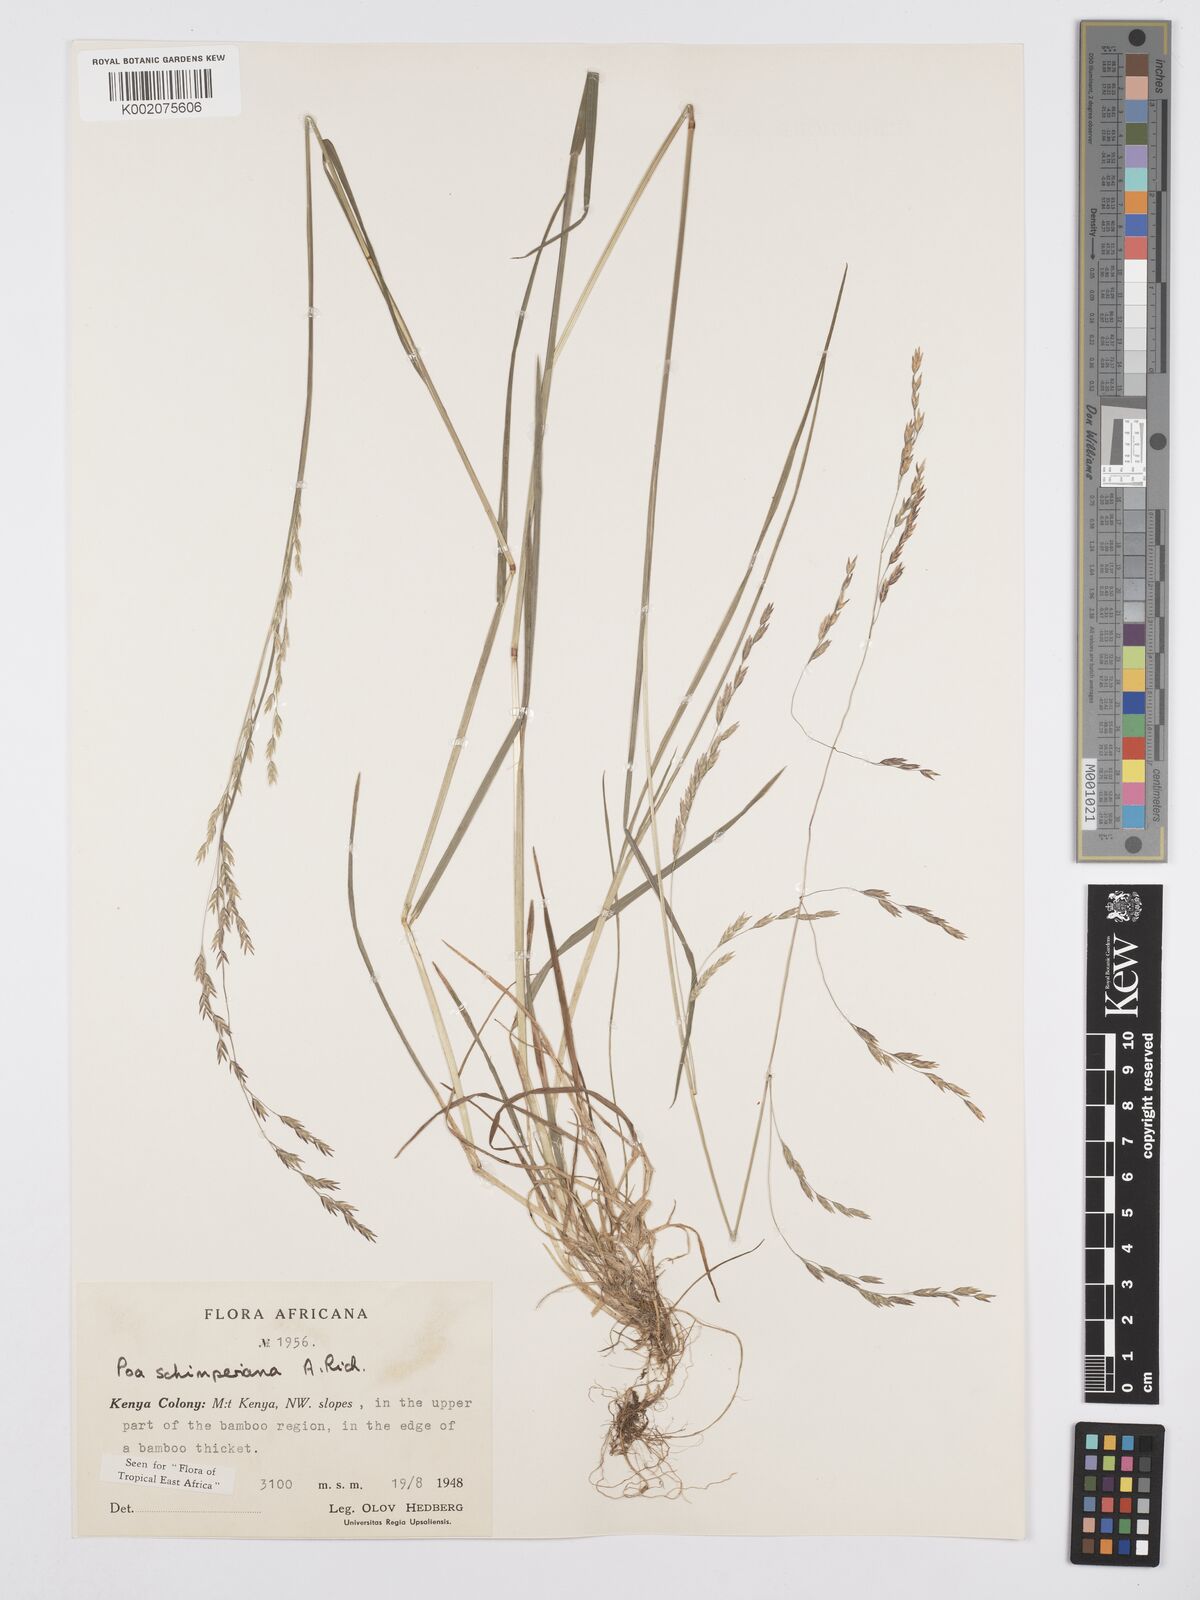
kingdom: Plantae
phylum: Tracheophyta
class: Liliopsida
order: Poales
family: Poaceae
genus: Poa
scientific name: Poa schimperiana
